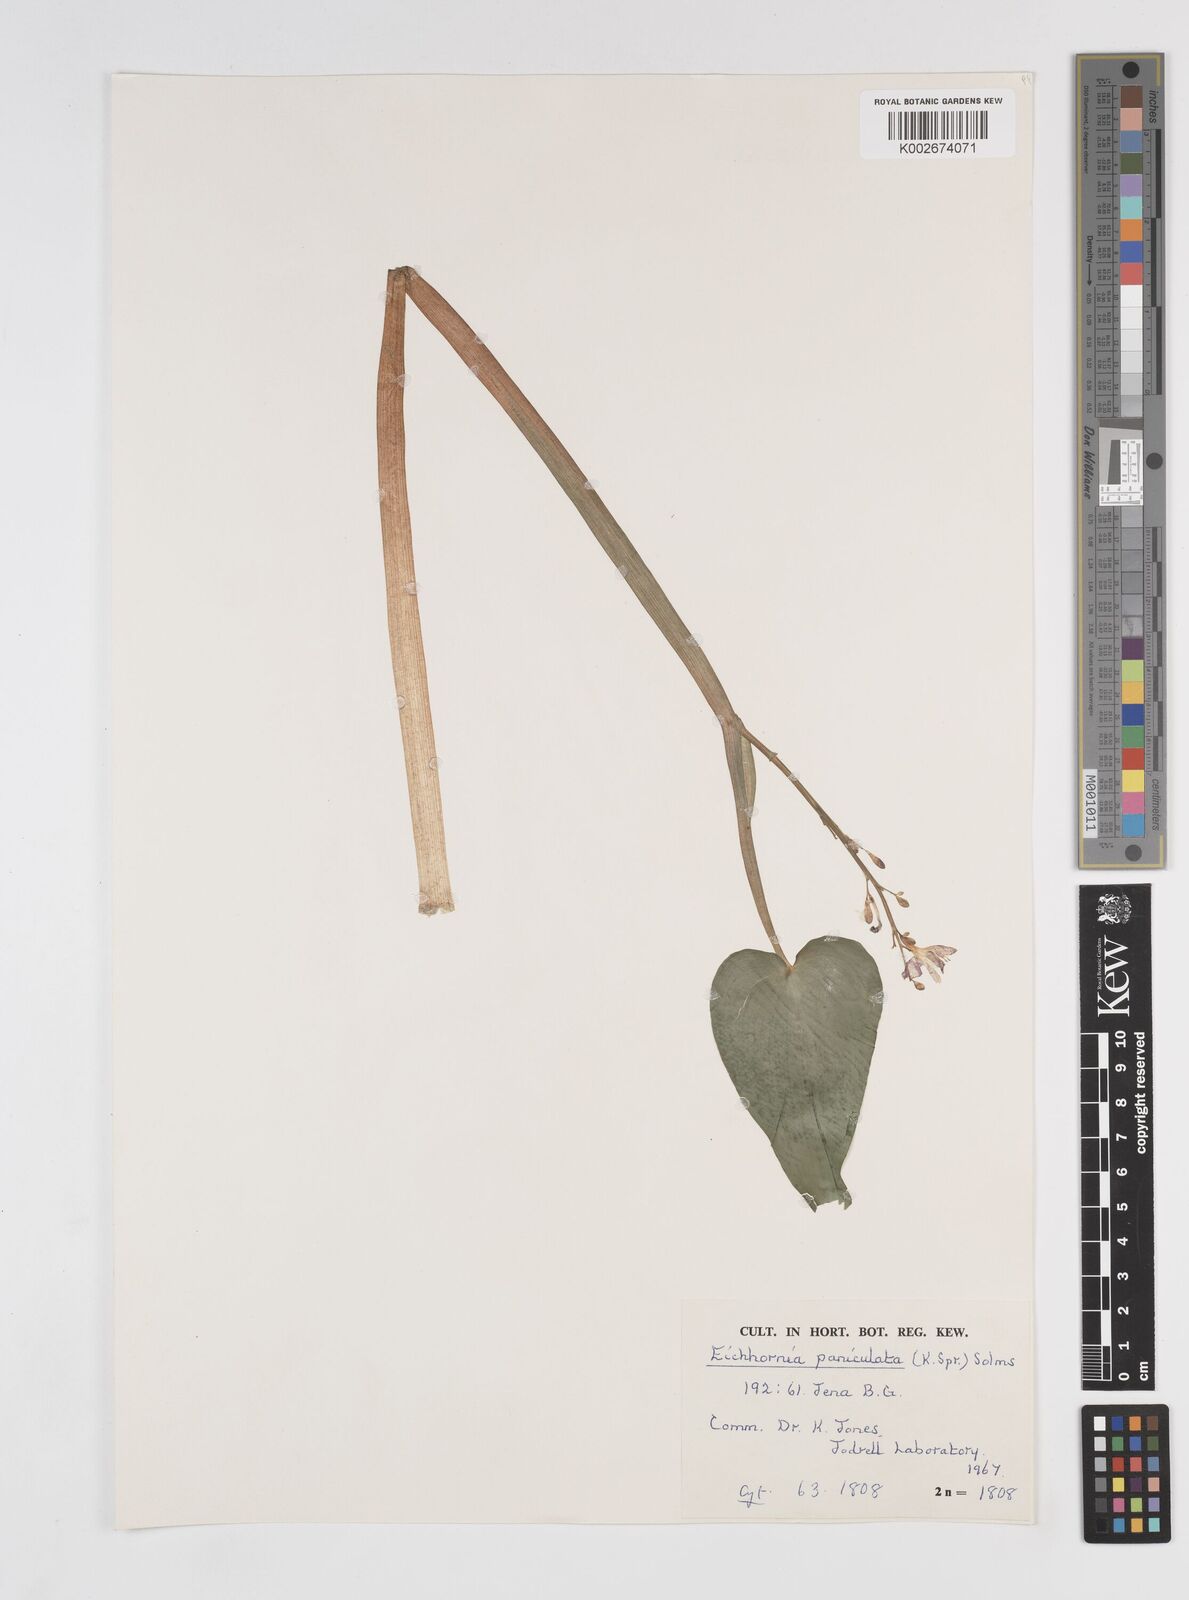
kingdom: Plantae
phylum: Tracheophyta
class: Liliopsida
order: Commelinales
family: Pontederiaceae
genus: Pontederia
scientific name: Pontederia paniculata
